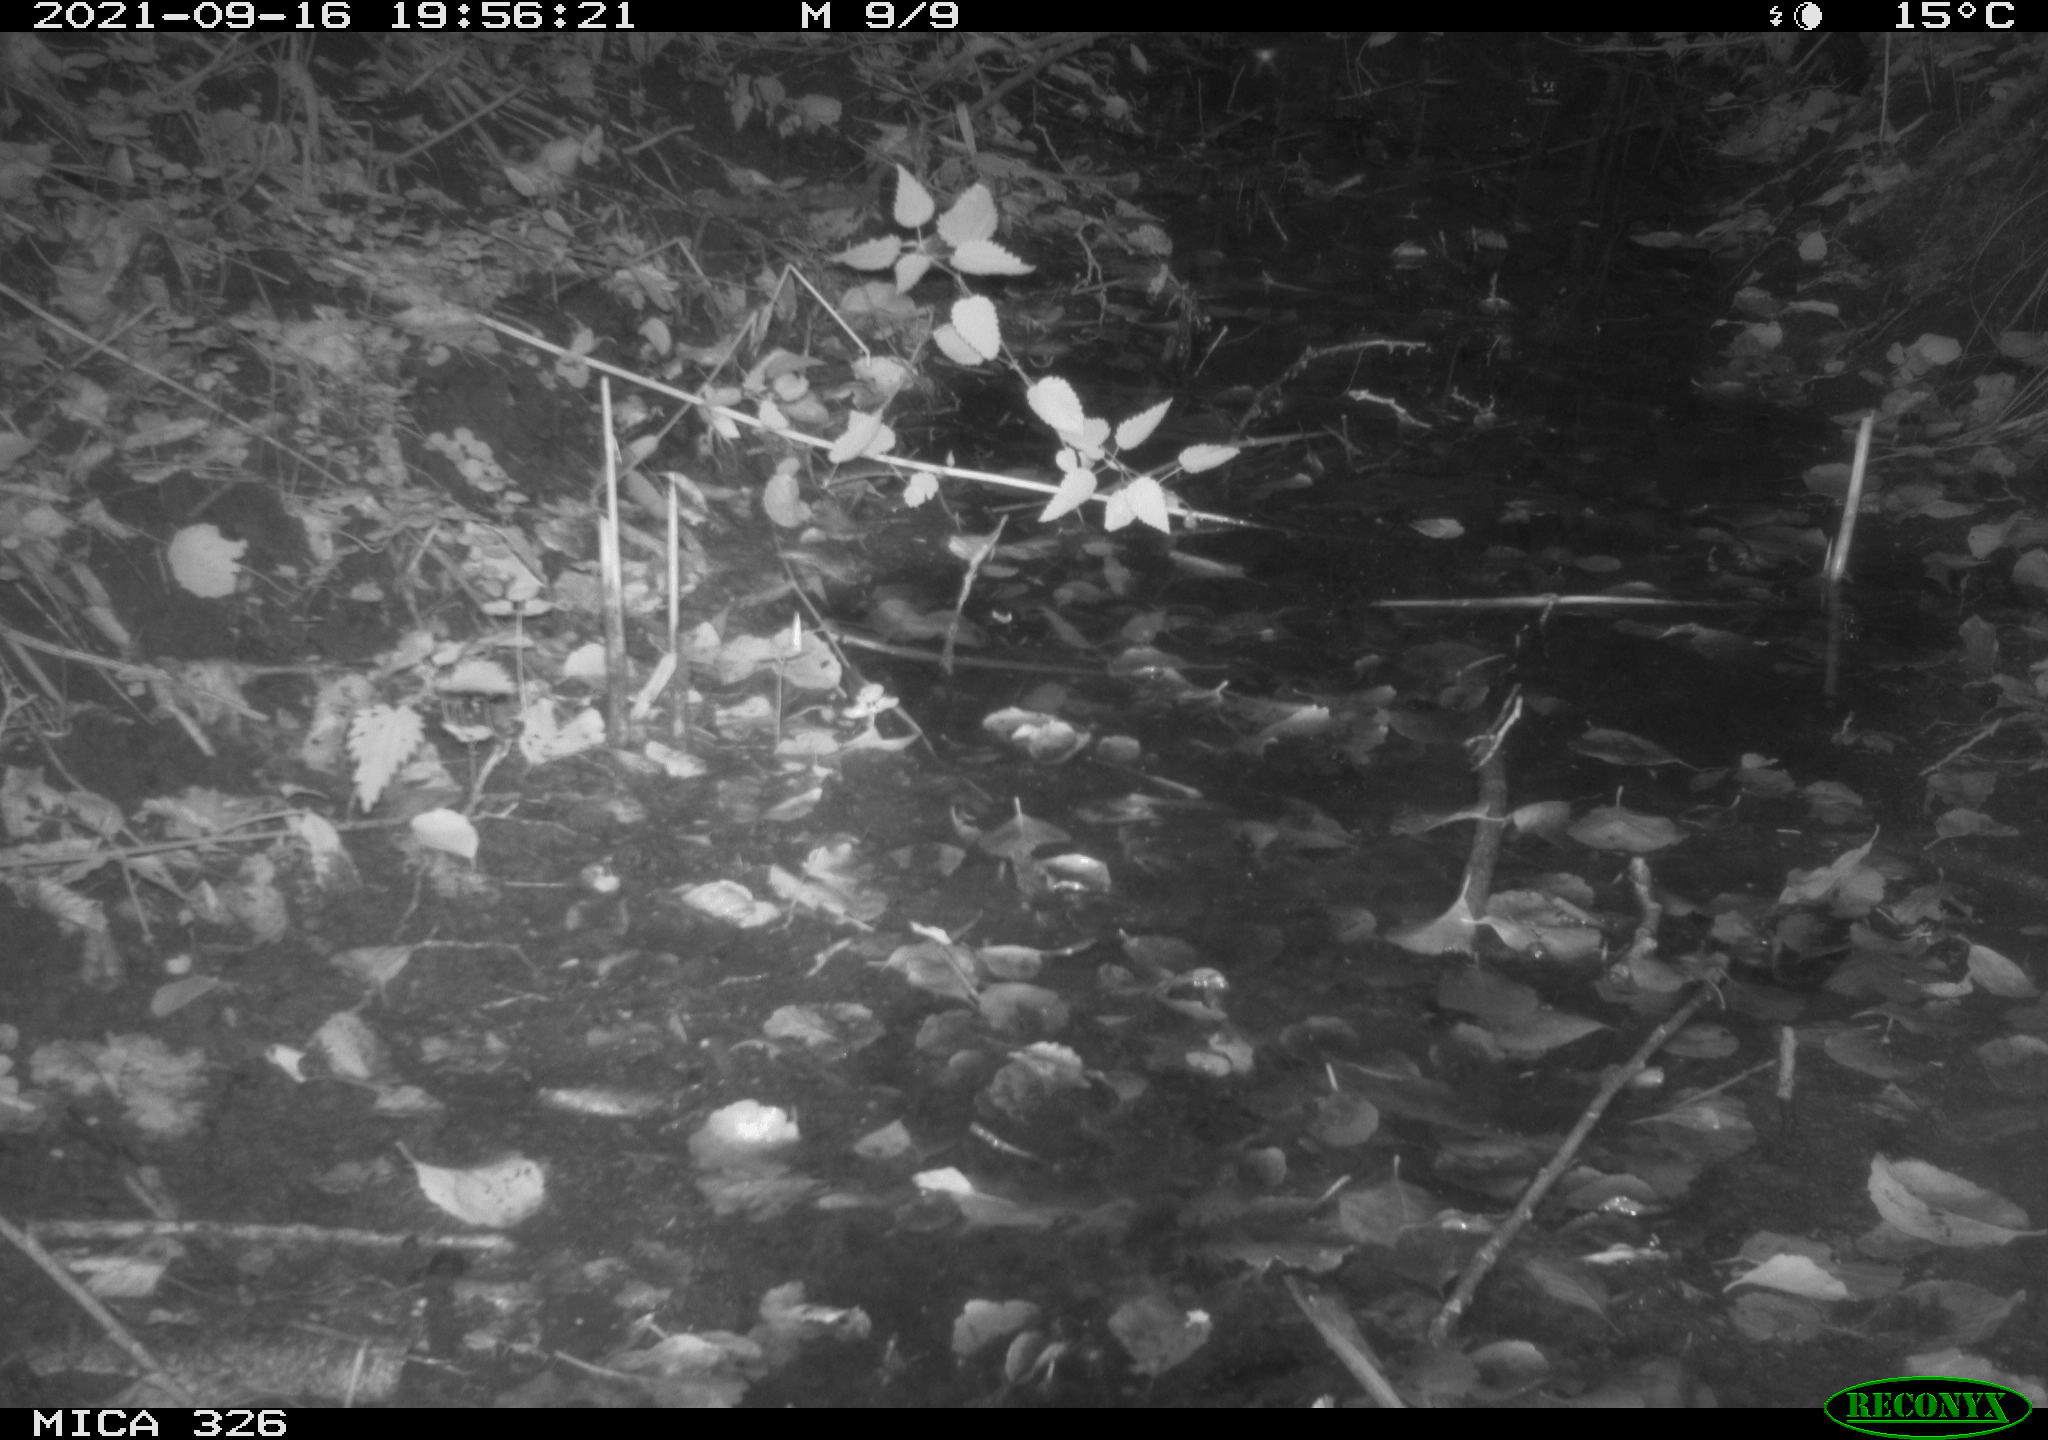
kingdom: Animalia
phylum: Chordata
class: Mammalia
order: Rodentia
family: Muridae
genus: Rattus
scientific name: Rattus norvegicus
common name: Brown rat
